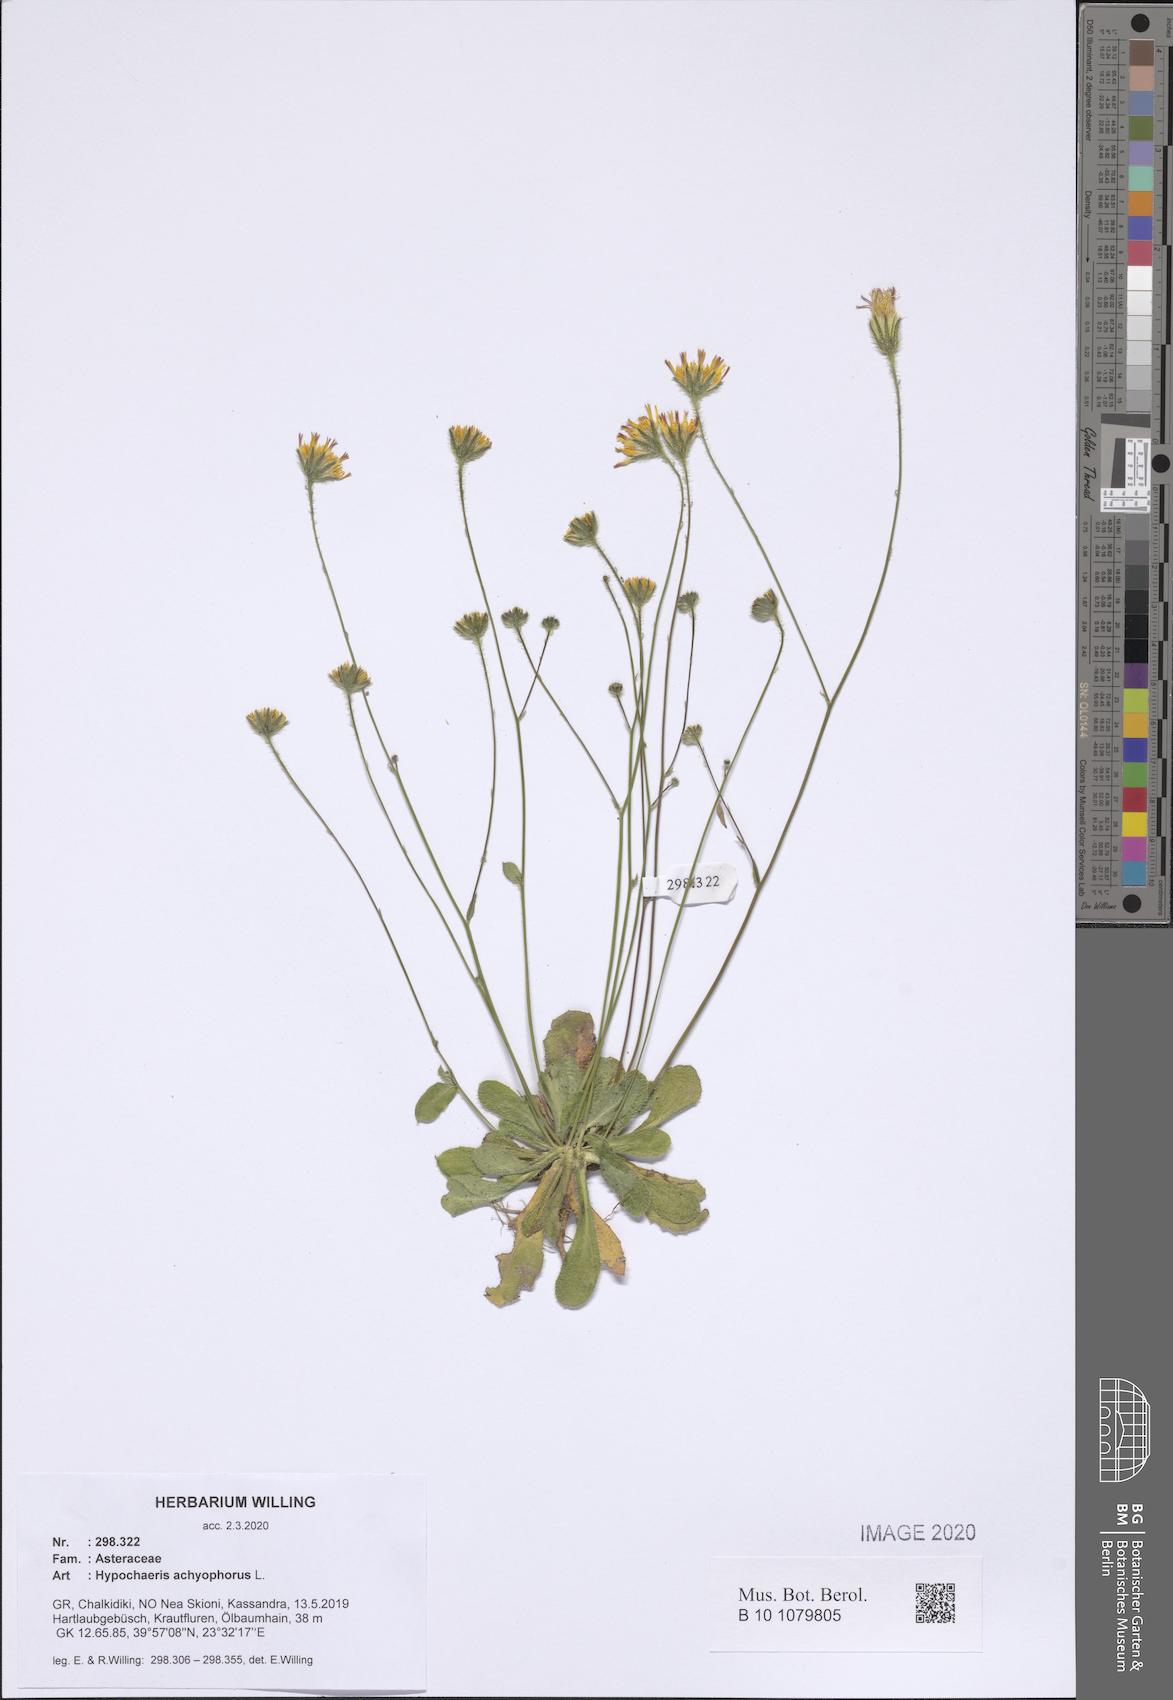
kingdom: Plantae
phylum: Tracheophyta
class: Magnoliopsida
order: Asterales
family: Asteraceae
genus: Achyrophorus
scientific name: Achyrophorus valdesii
